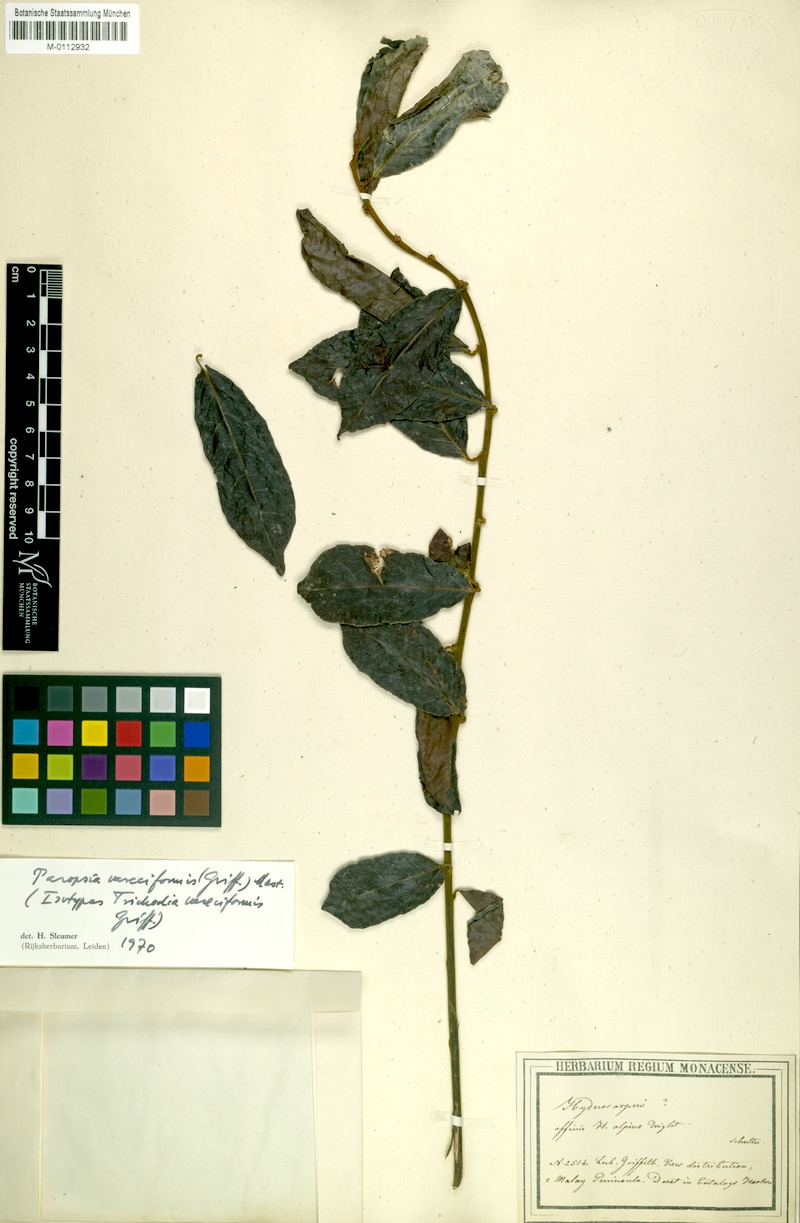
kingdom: Plantae
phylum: Tracheophyta
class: Magnoliopsida
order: Malpighiales
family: Passifloraceae
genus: Paropsia
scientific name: Paropsia varecifomis
